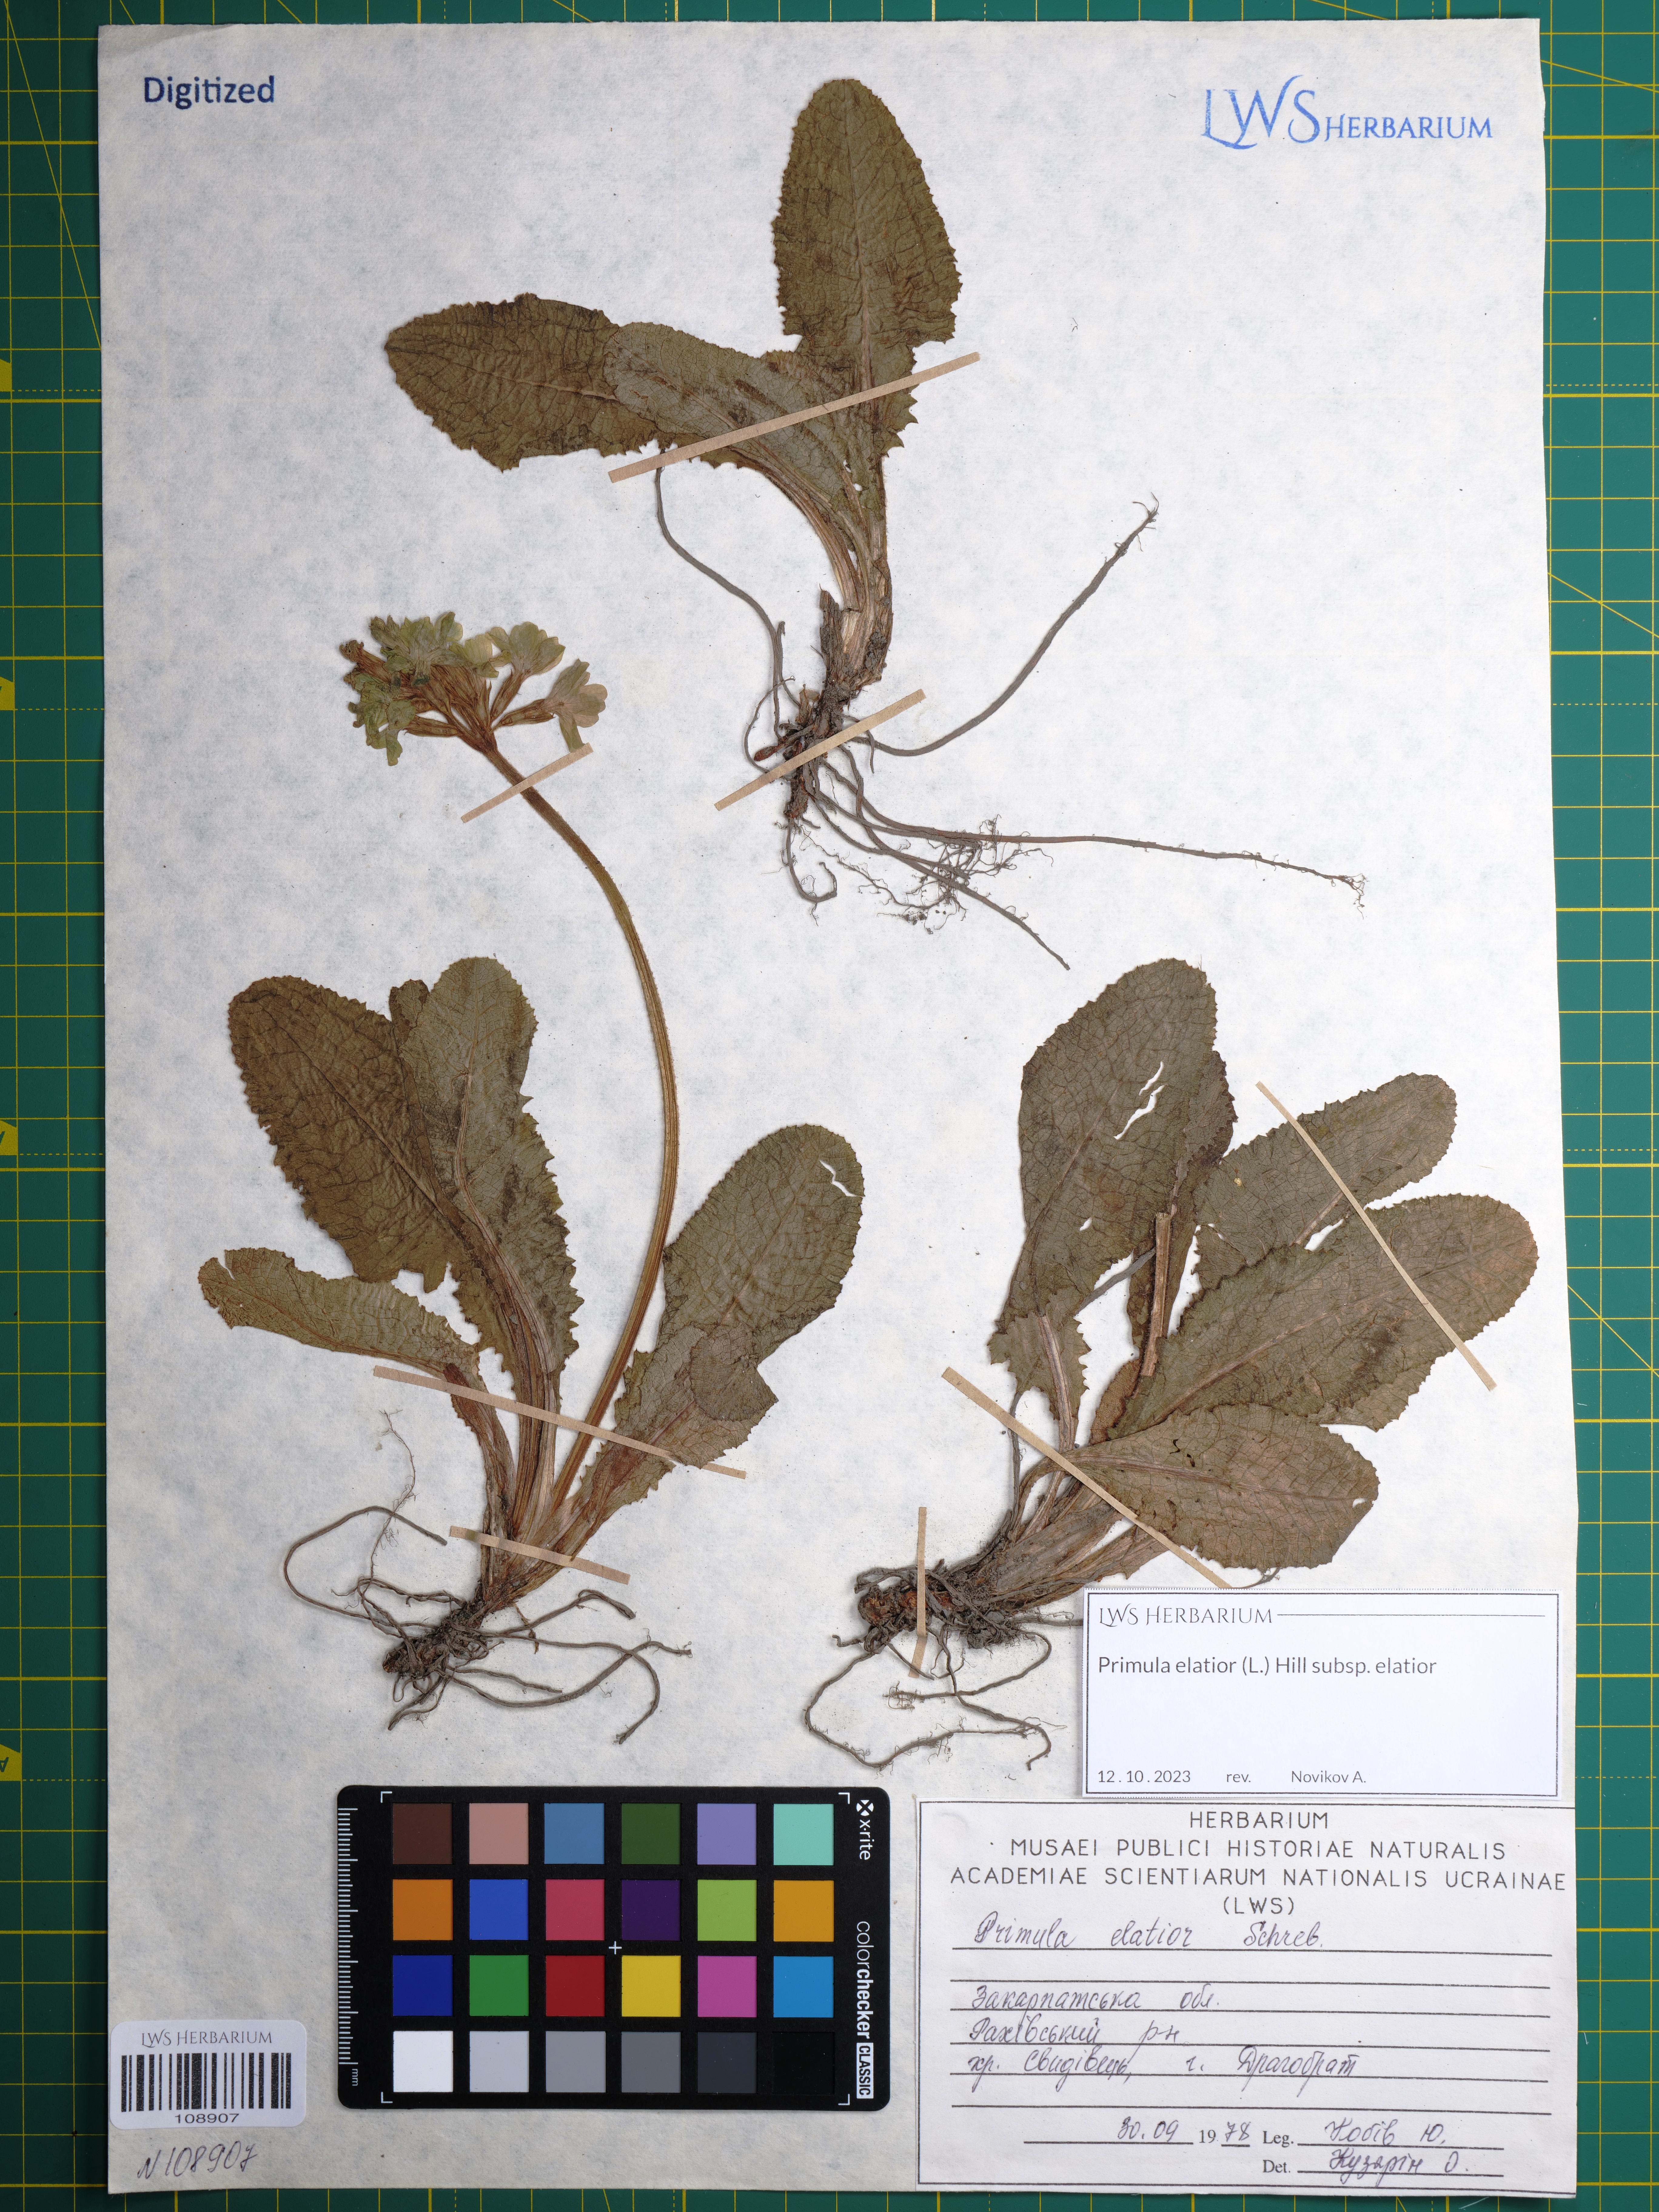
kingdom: Plantae
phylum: Tracheophyta
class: Magnoliopsida
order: Ericales
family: Primulaceae
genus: Primula
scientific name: Primula elatior
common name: Oxlip
